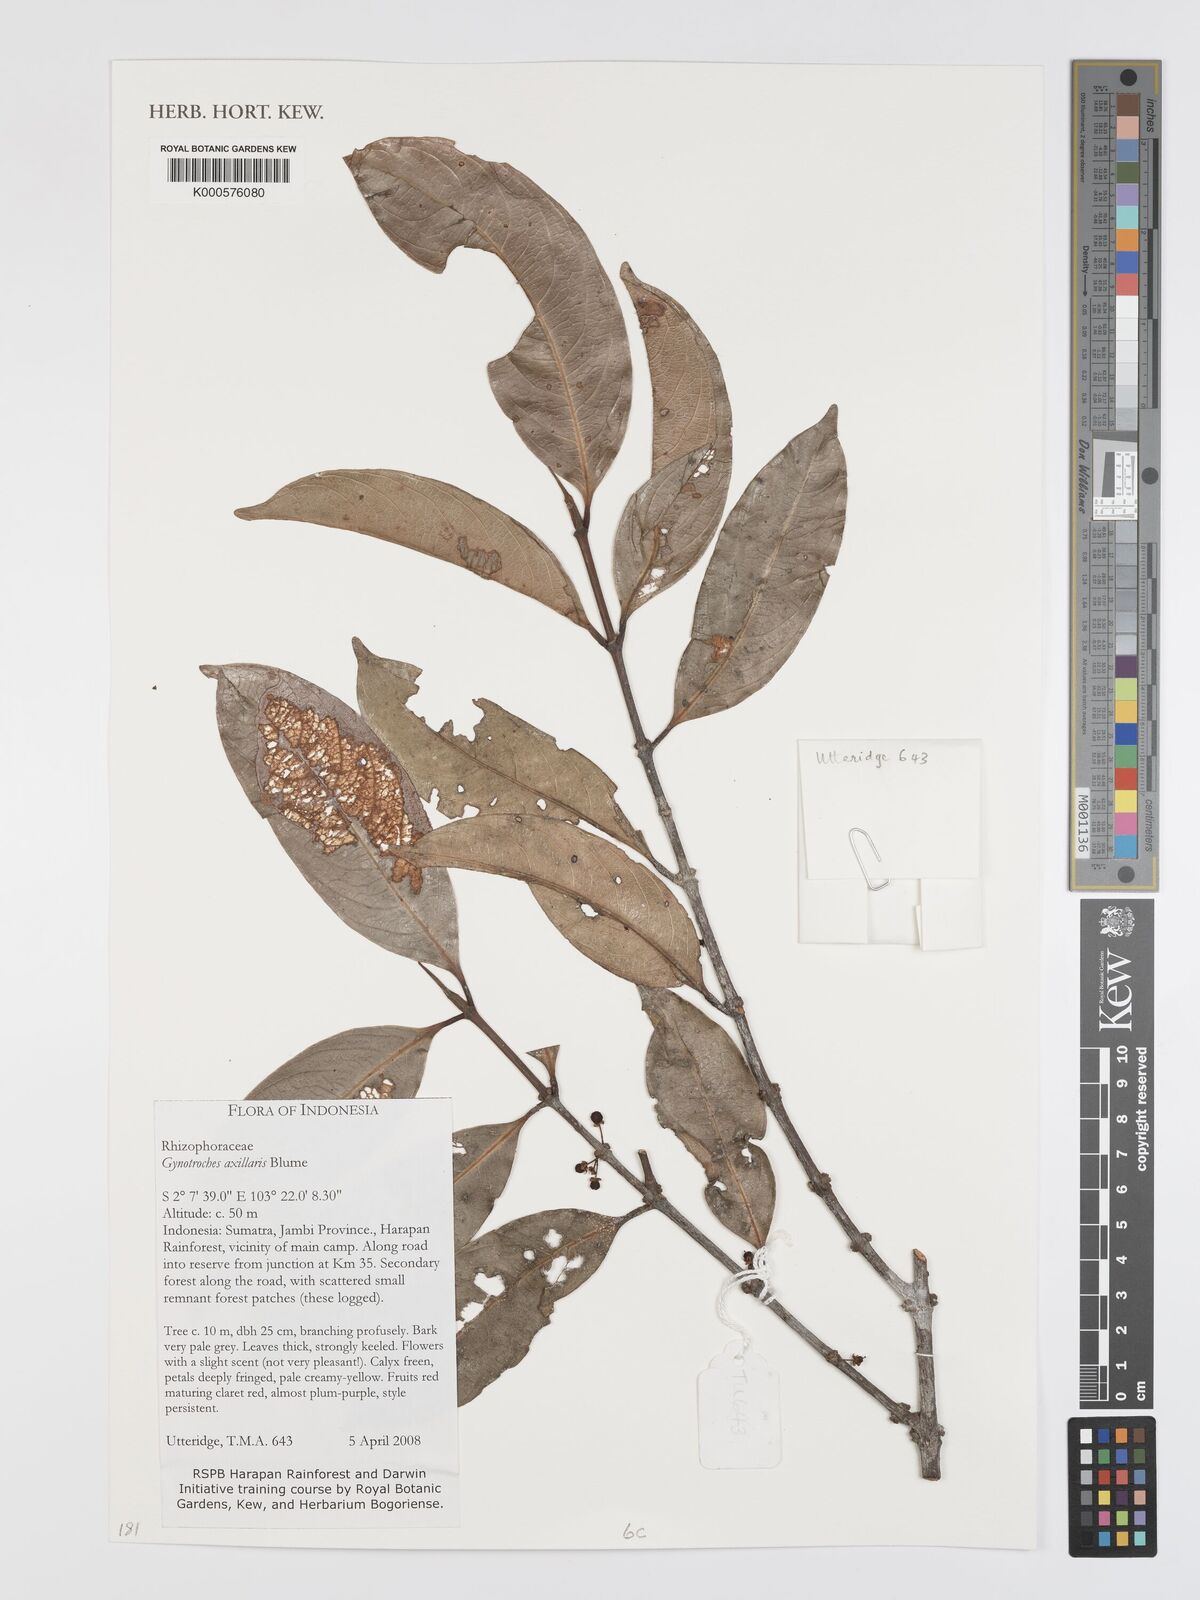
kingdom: Plantae
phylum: Tracheophyta
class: Magnoliopsida
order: Malpighiales
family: Rhizophoraceae
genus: Gynotroches
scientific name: Gynotroches axillaris
